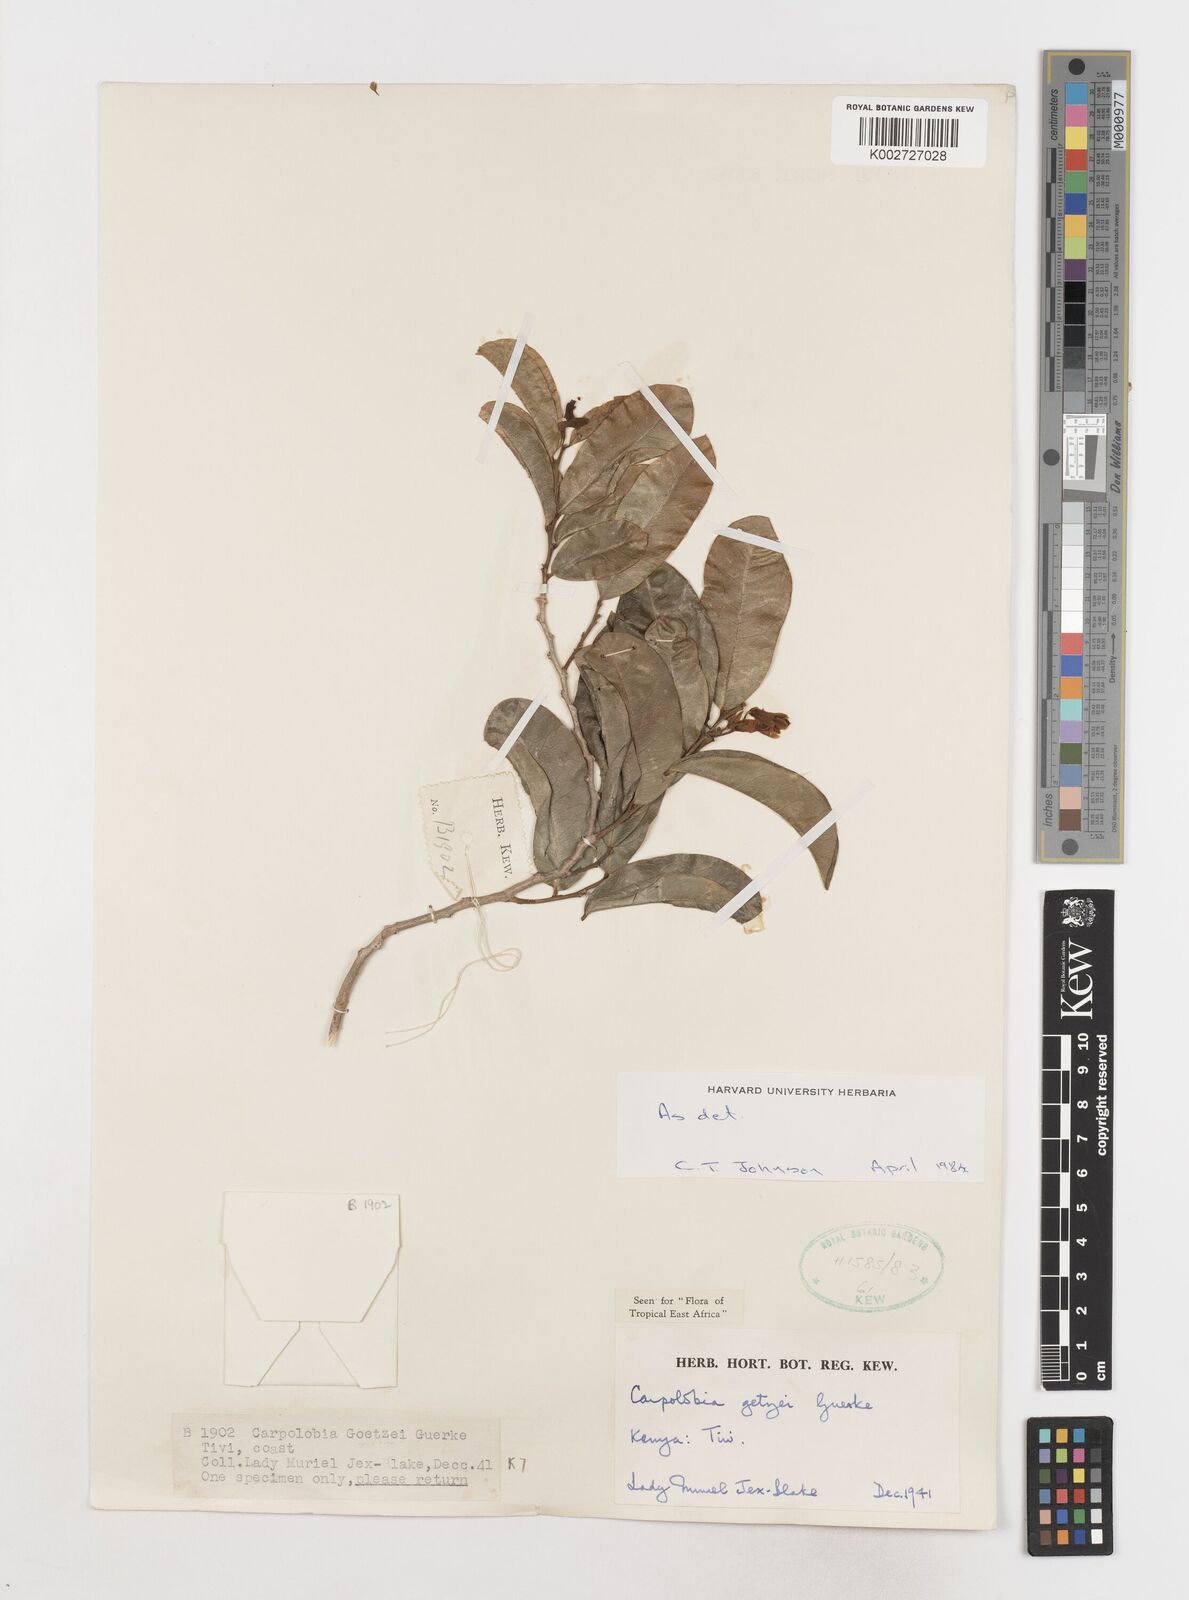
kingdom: Plantae
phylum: Tracheophyta
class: Magnoliopsida
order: Fabales
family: Polygalaceae
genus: Carpolobia
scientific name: Carpolobia goetzei
